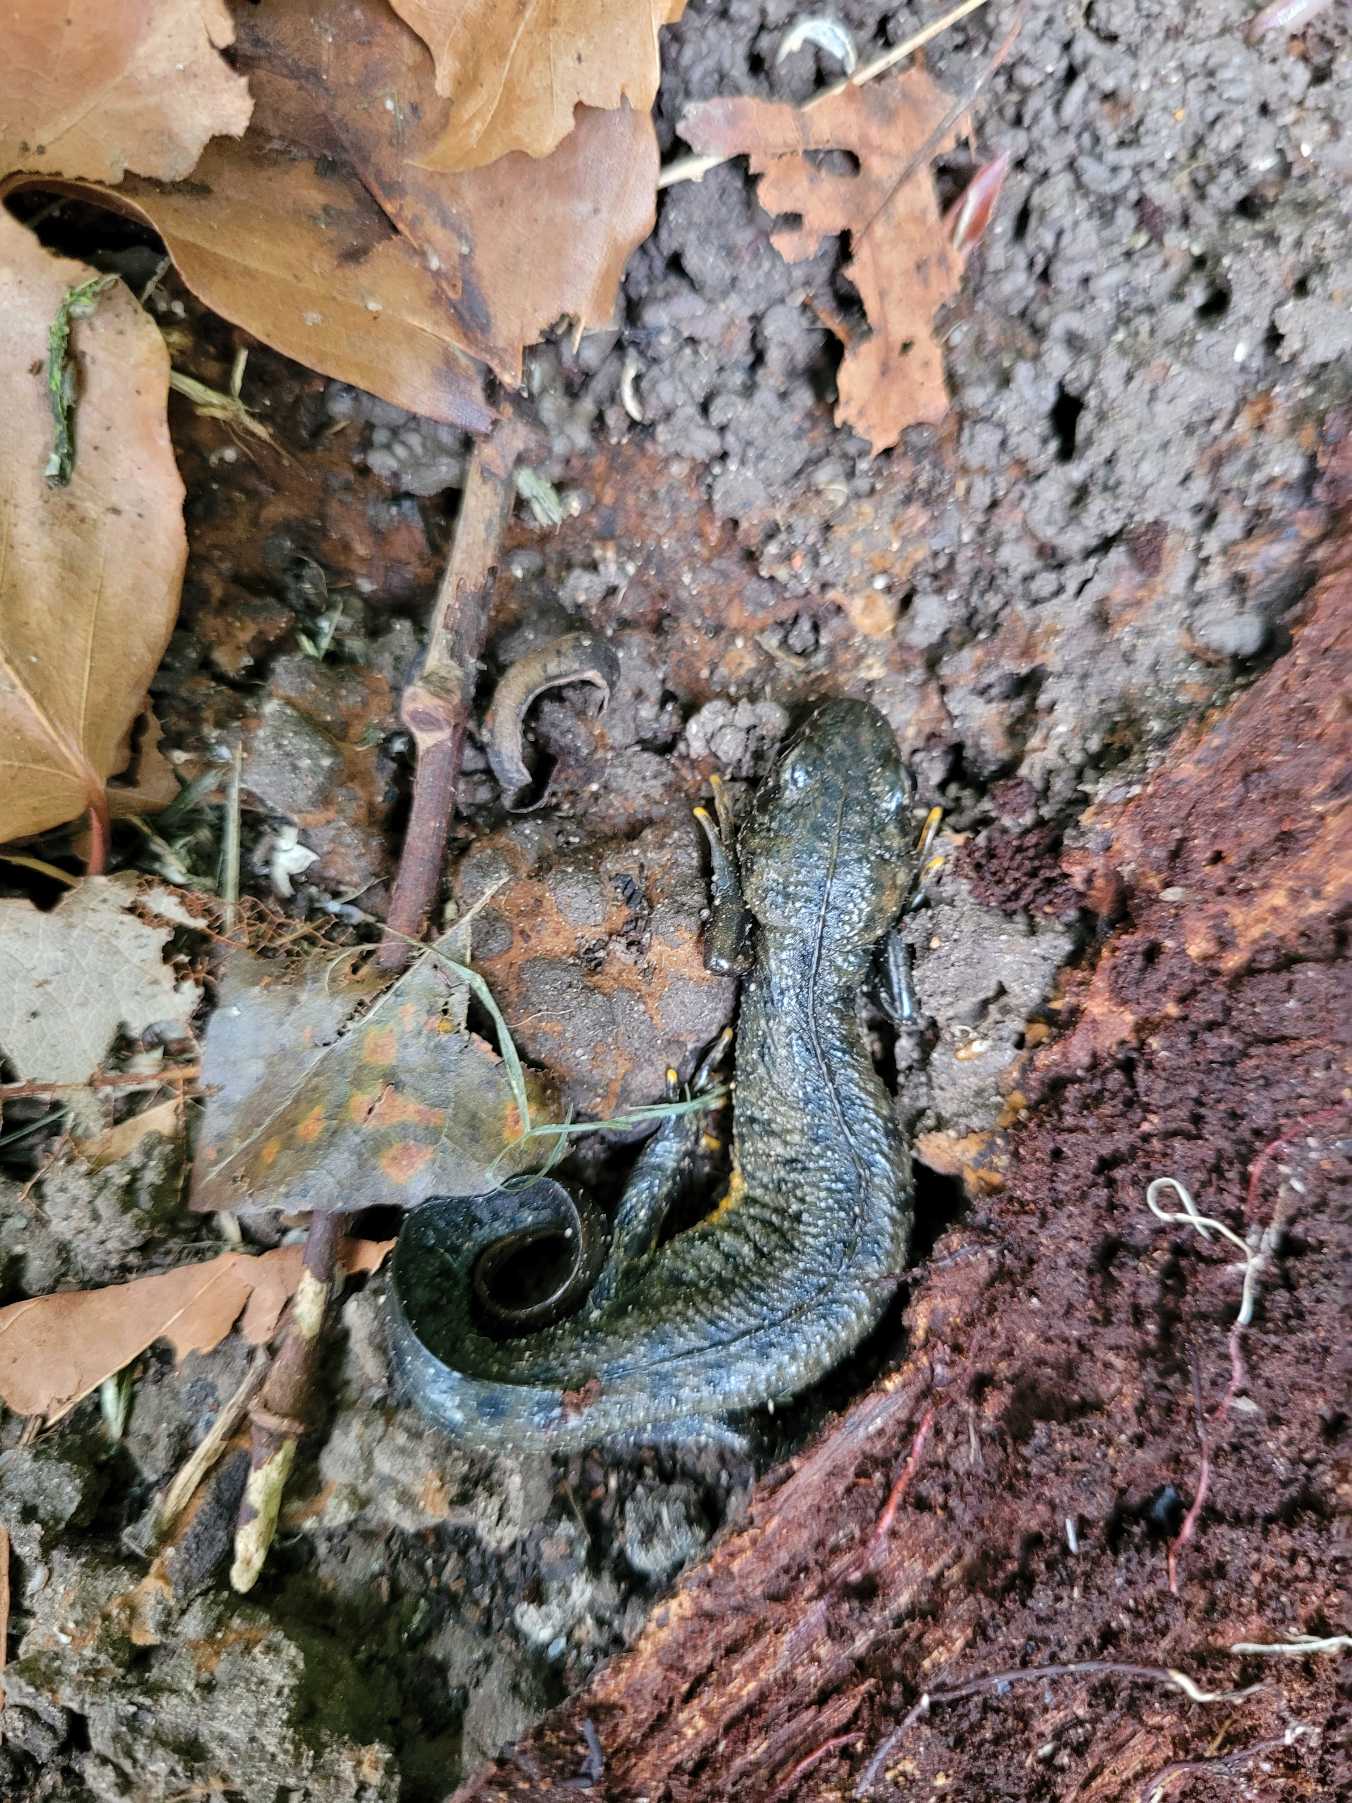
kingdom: Animalia
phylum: Chordata
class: Amphibia
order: Caudata
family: Salamandridae
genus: Triturus
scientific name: Triturus cristatus
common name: Stor vandsalamander
